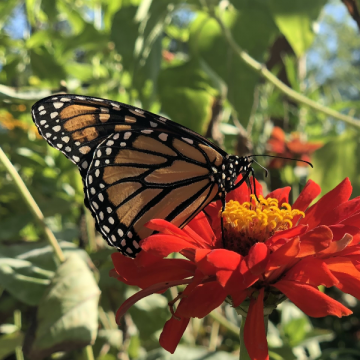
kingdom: Animalia
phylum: Arthropoda
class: Insecta
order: Lepidoptera
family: Nymphalidae
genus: Danaus
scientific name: Danaus plexippus
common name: Monarch
